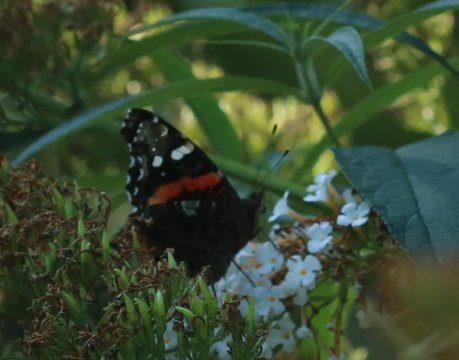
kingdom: Animalia
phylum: Arthropoda
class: Insecta
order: Lepidoptera
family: Nymphalidae
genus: Vanessa
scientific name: Vanessa atalanta
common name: Red Admiral
